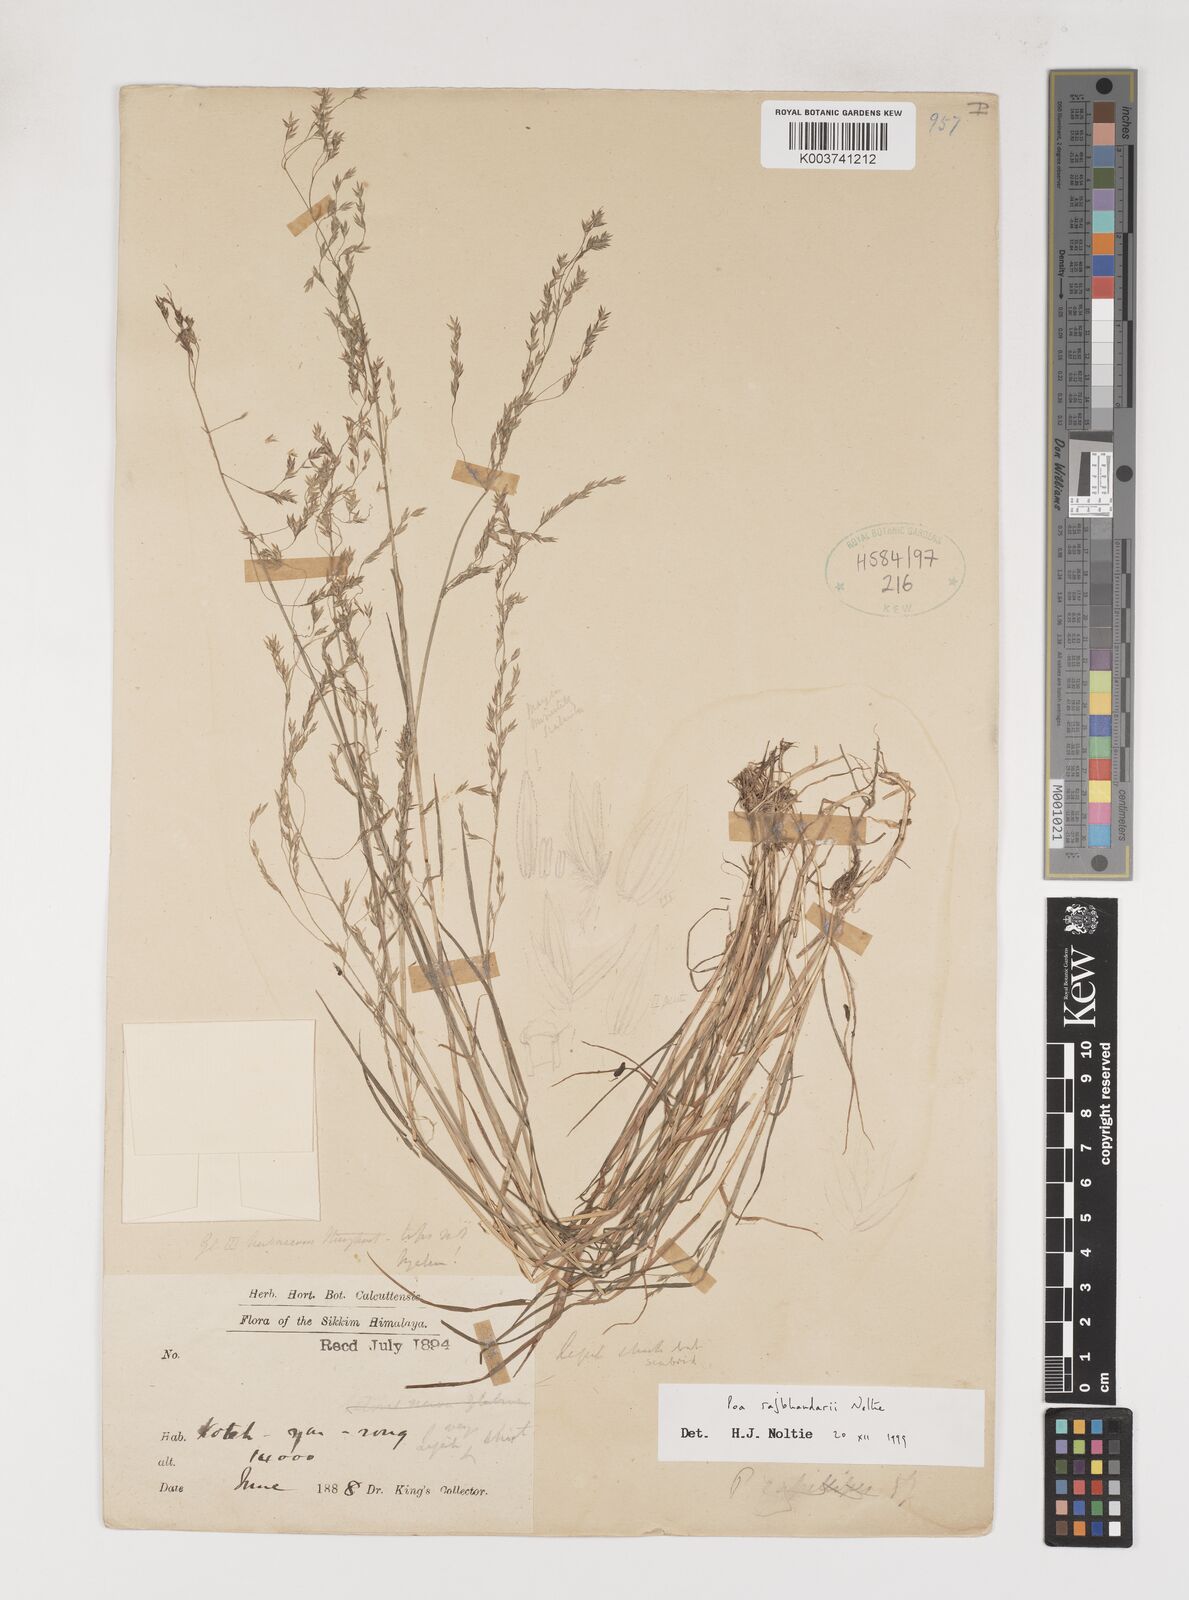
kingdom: Plantae
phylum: Tracheophyta
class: Liliopsida
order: Poales
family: Poaceae
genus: Poa
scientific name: Poa rajbhandarii
